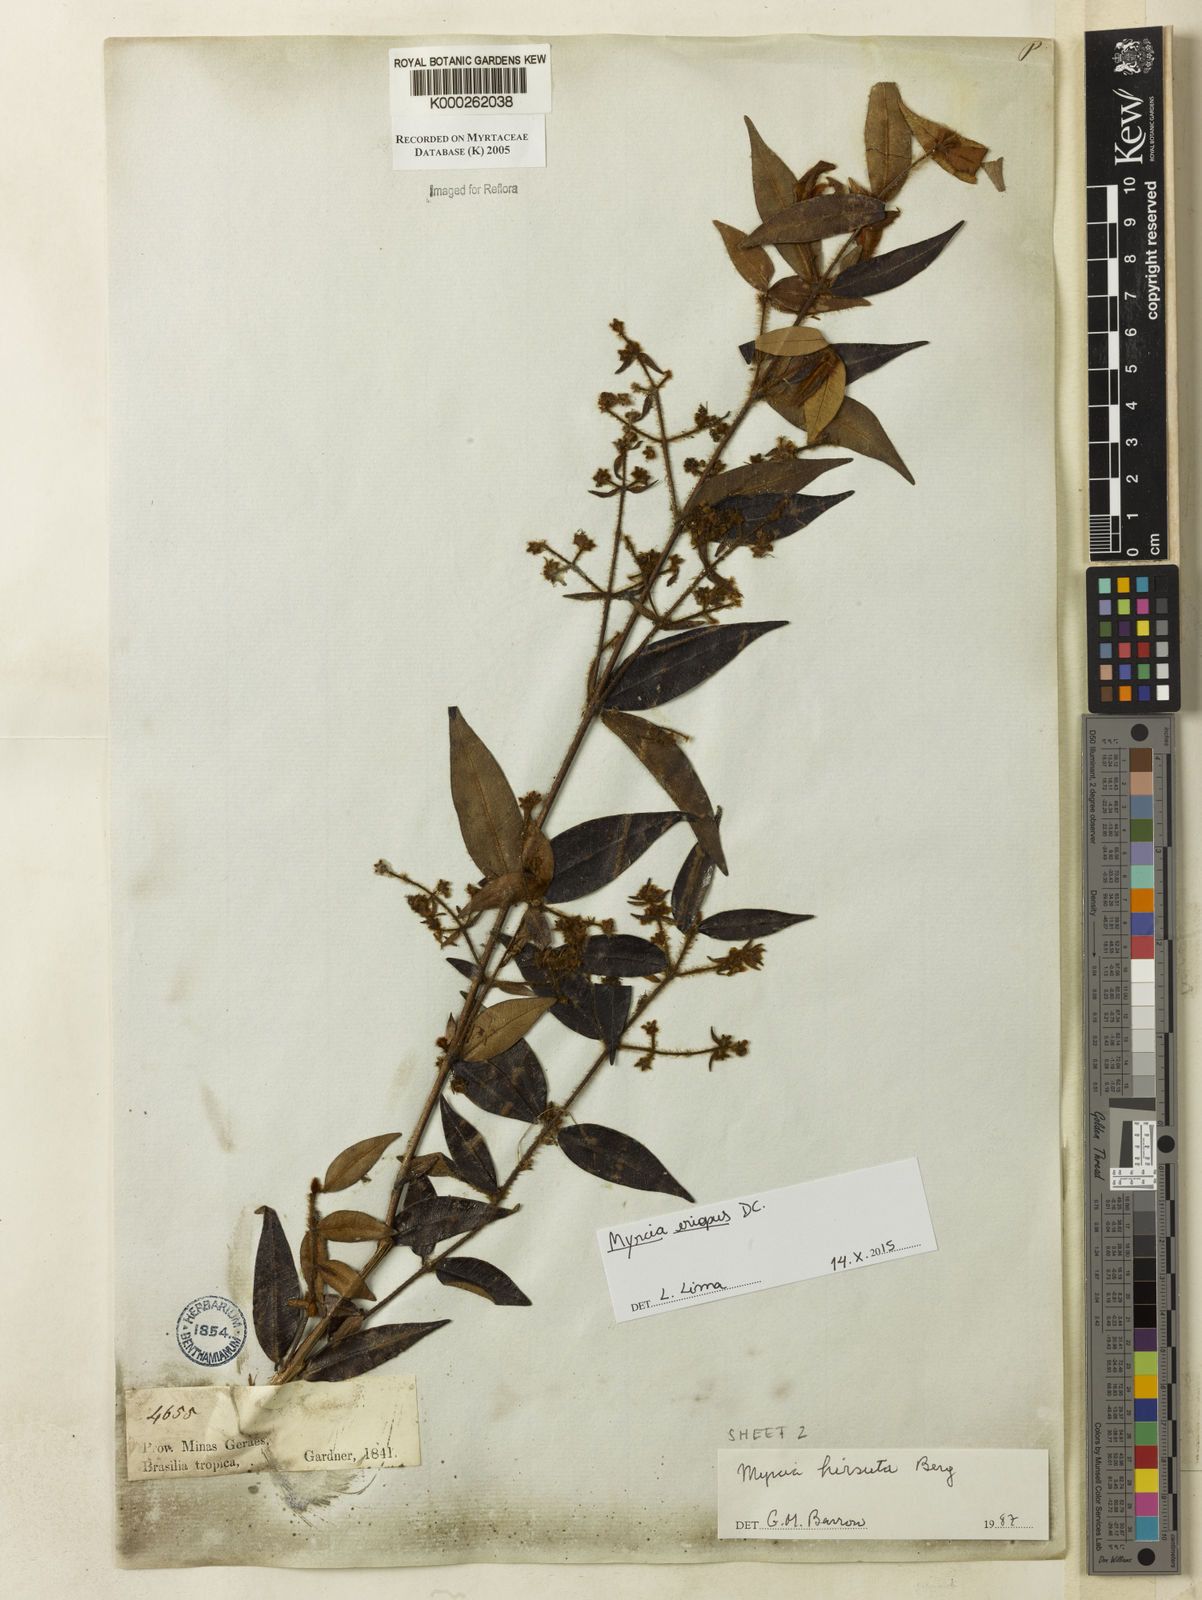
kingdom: Plantae
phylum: Tracheophyta
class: Magnoliopsida
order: Myrtales
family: Myrtaceae
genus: Myrcia
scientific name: Myrcia eriopus
